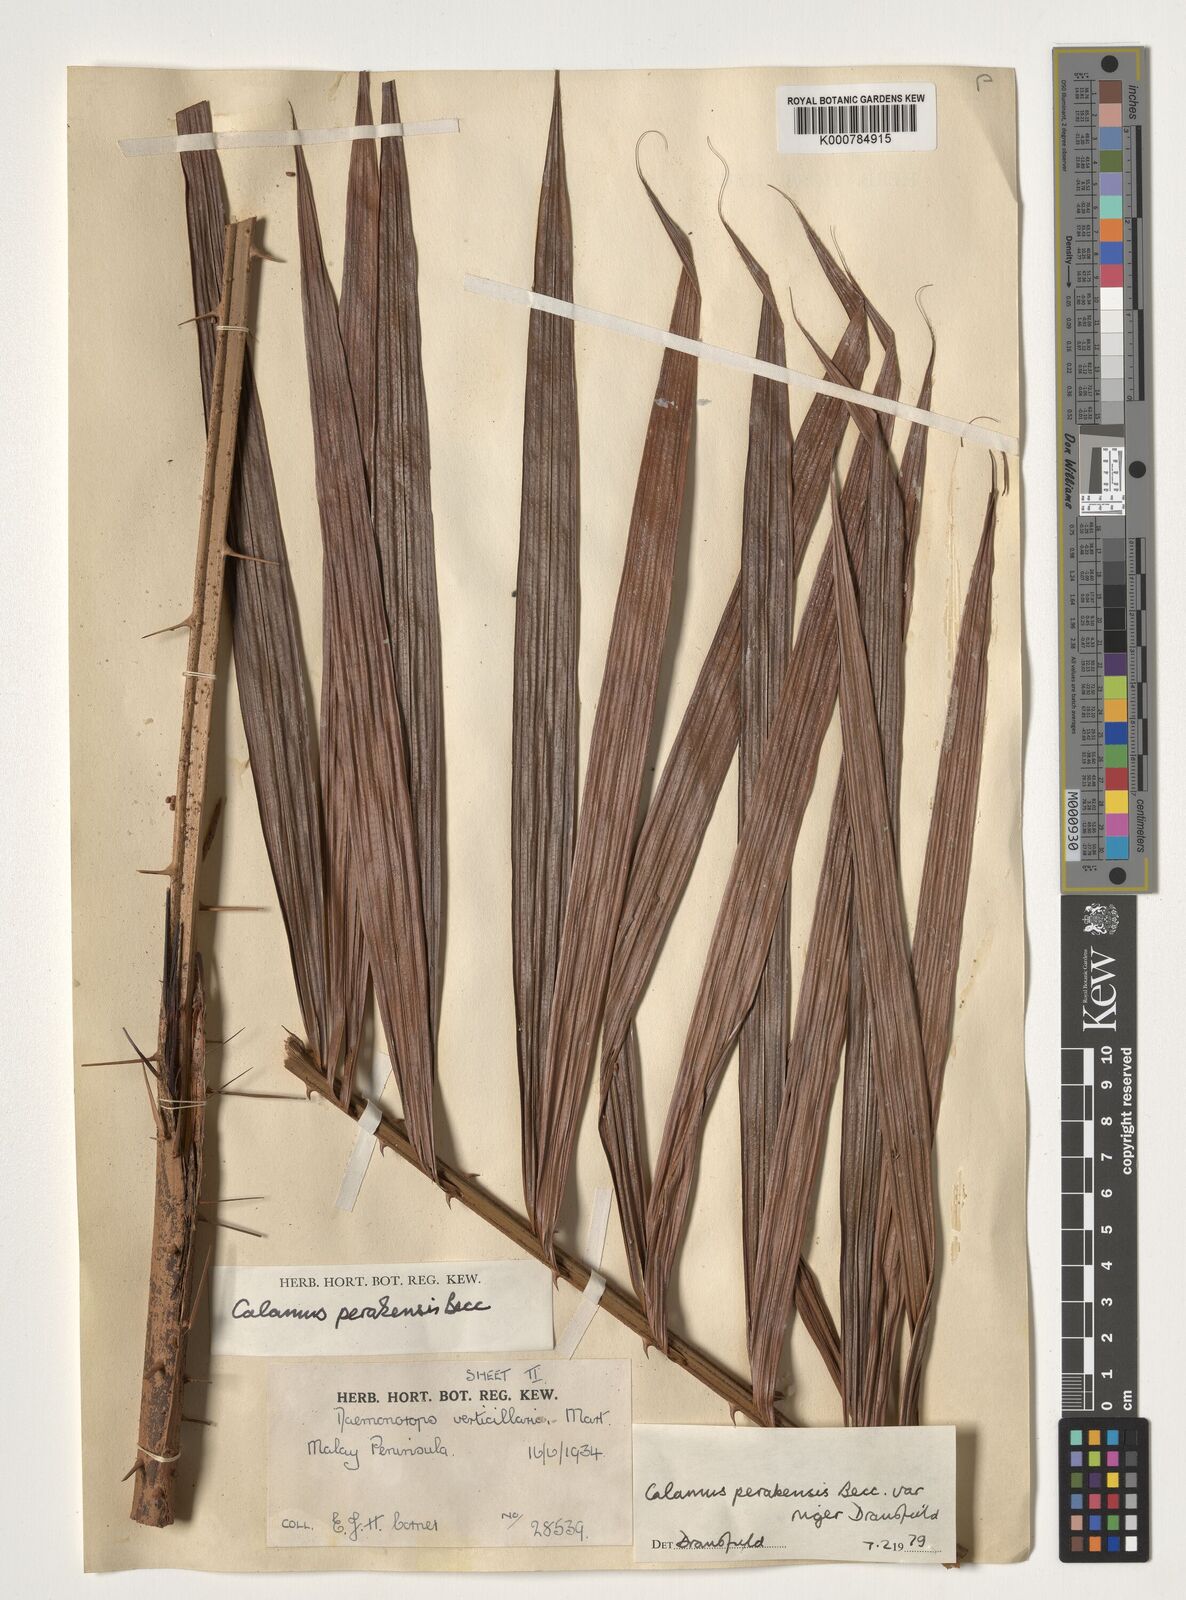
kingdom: Plantae
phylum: Tracheophyta
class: Liliopsida
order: Arecales
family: Arecaceae
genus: Calamus
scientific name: Calamus perakensis
